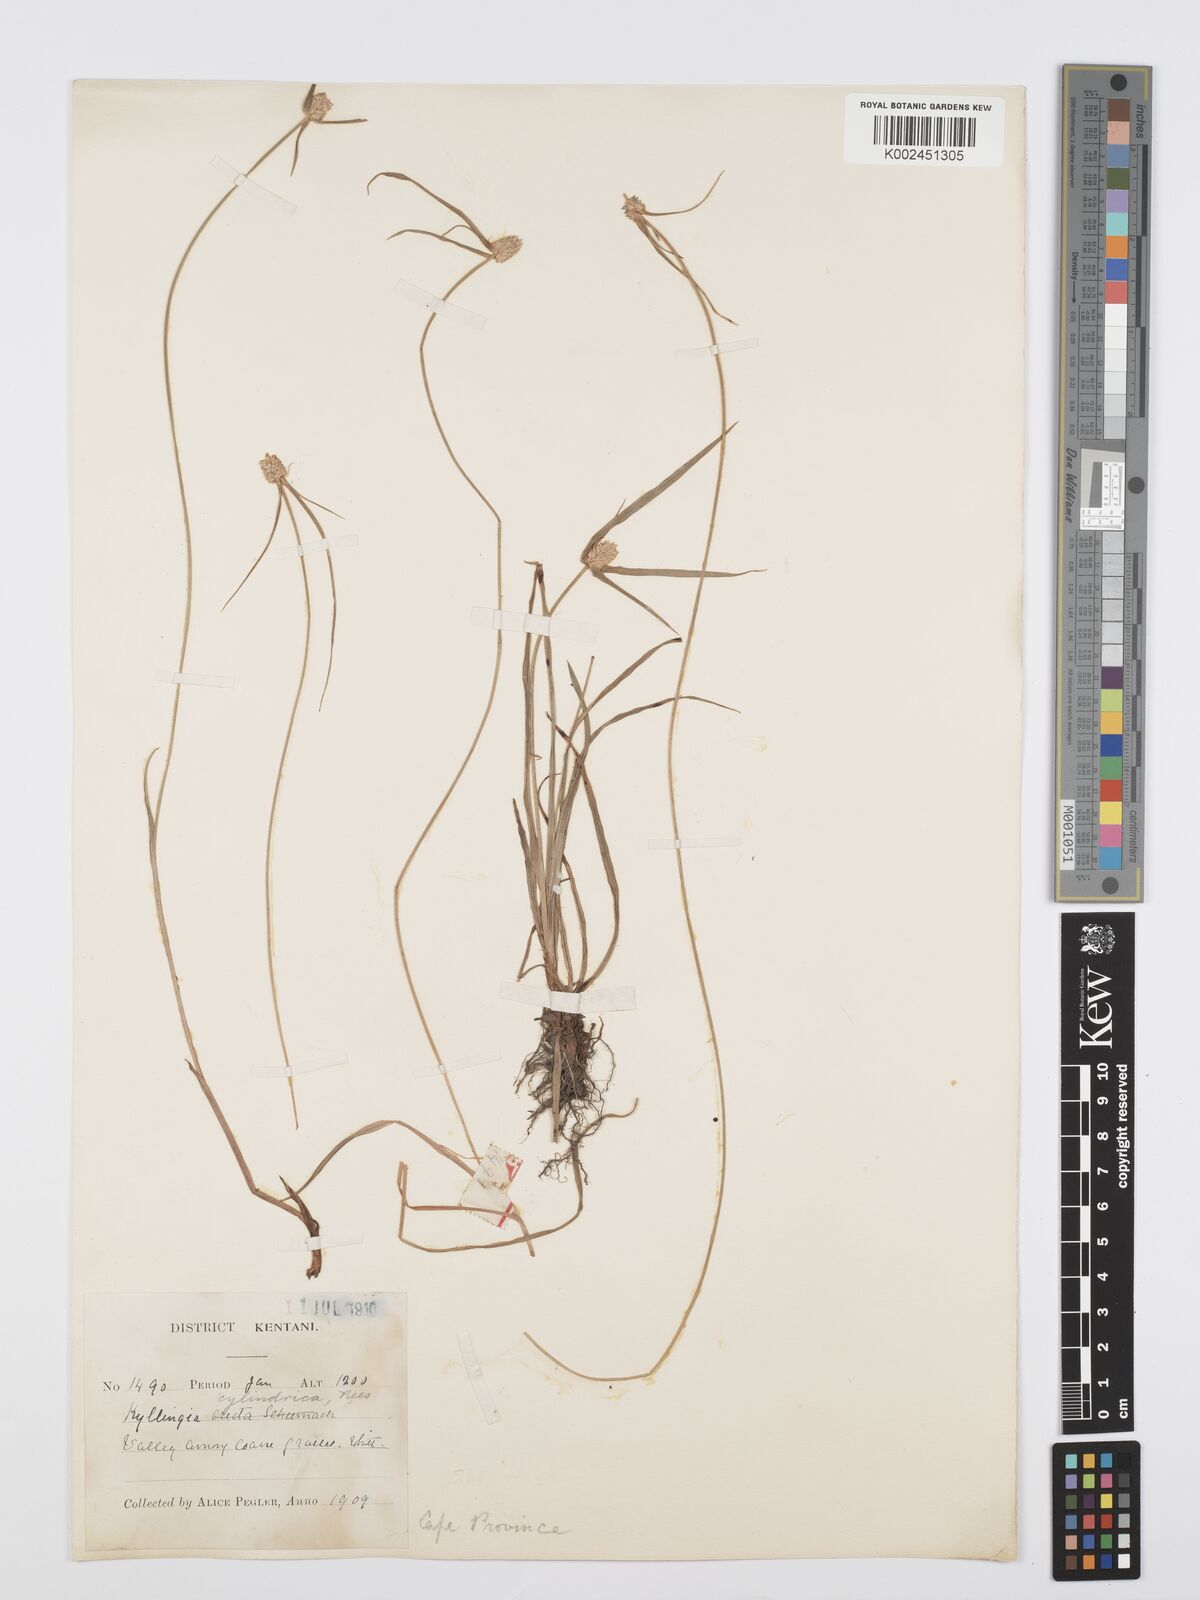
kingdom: Plantae
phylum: Tracheophyta
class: Liliopsida
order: Poales
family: Cyperaceae
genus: Cyperus
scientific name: Cyperus
